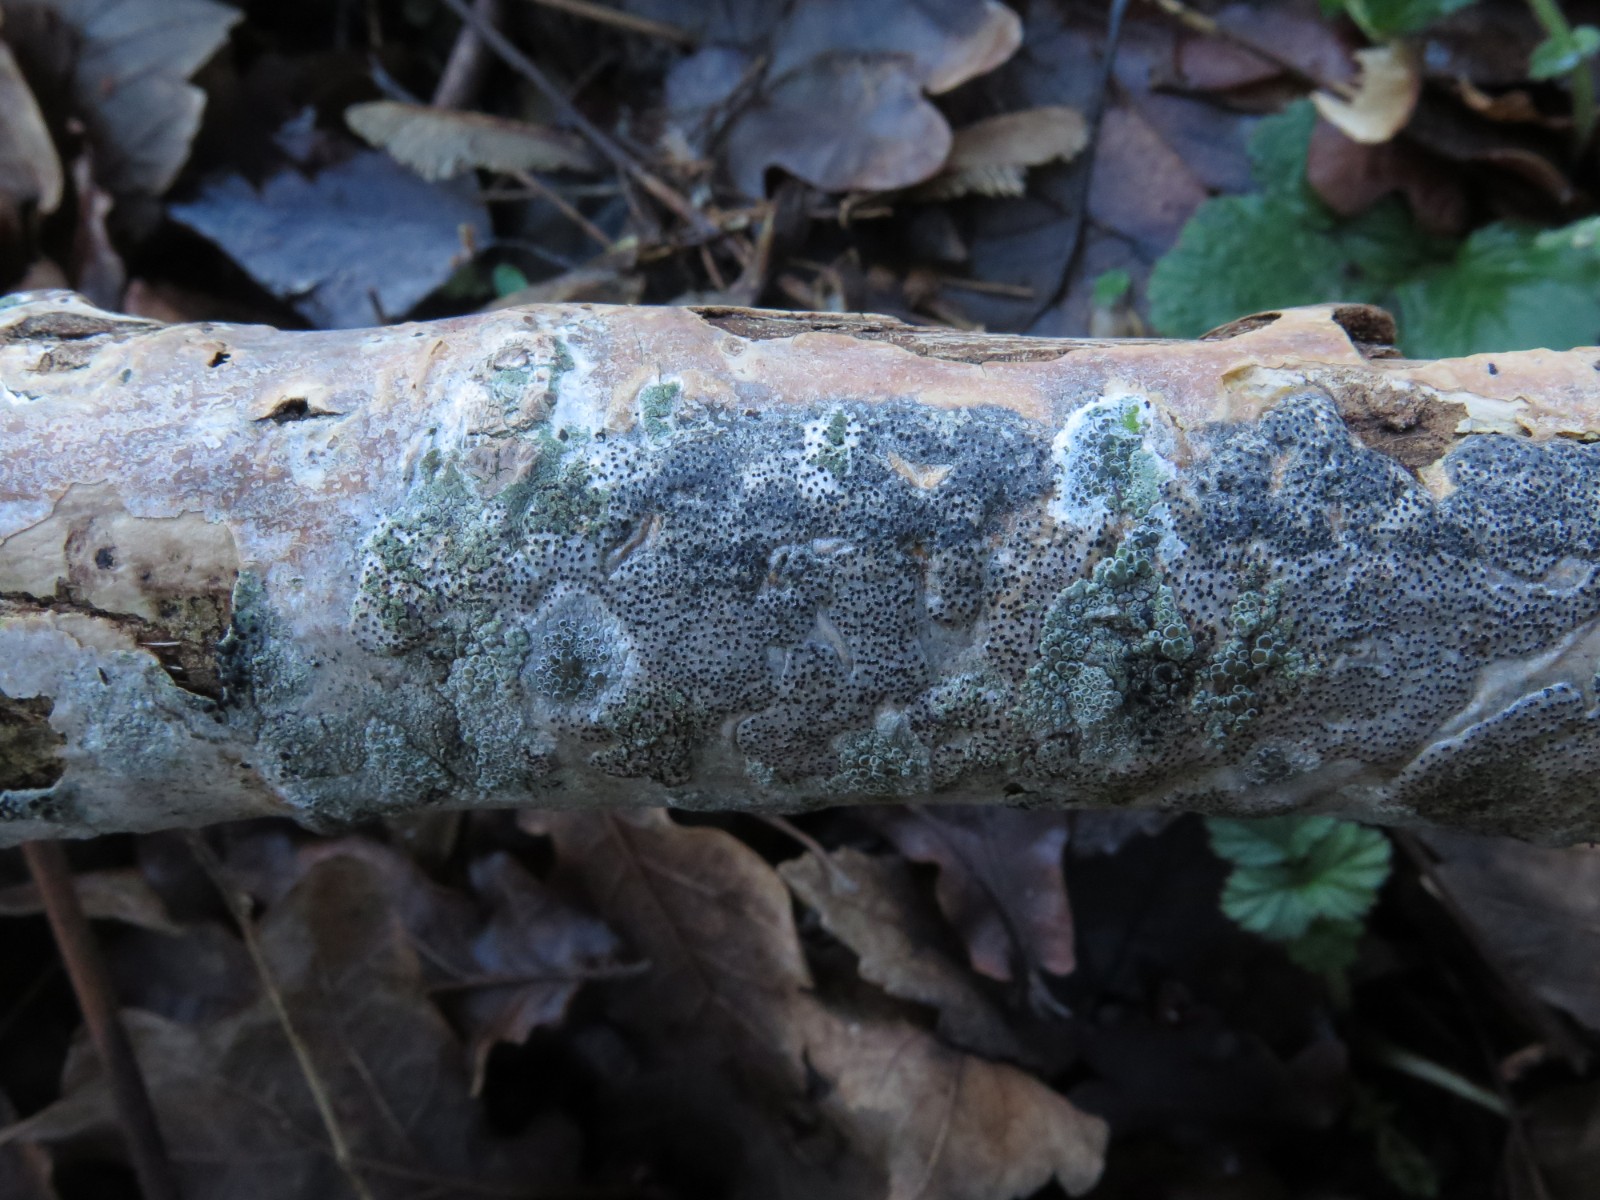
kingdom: Fungi
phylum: Ascomycota
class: Sordariomycetes
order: Diaporthales
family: Valsaceae
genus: Cytospora
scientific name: Cytospora populina
